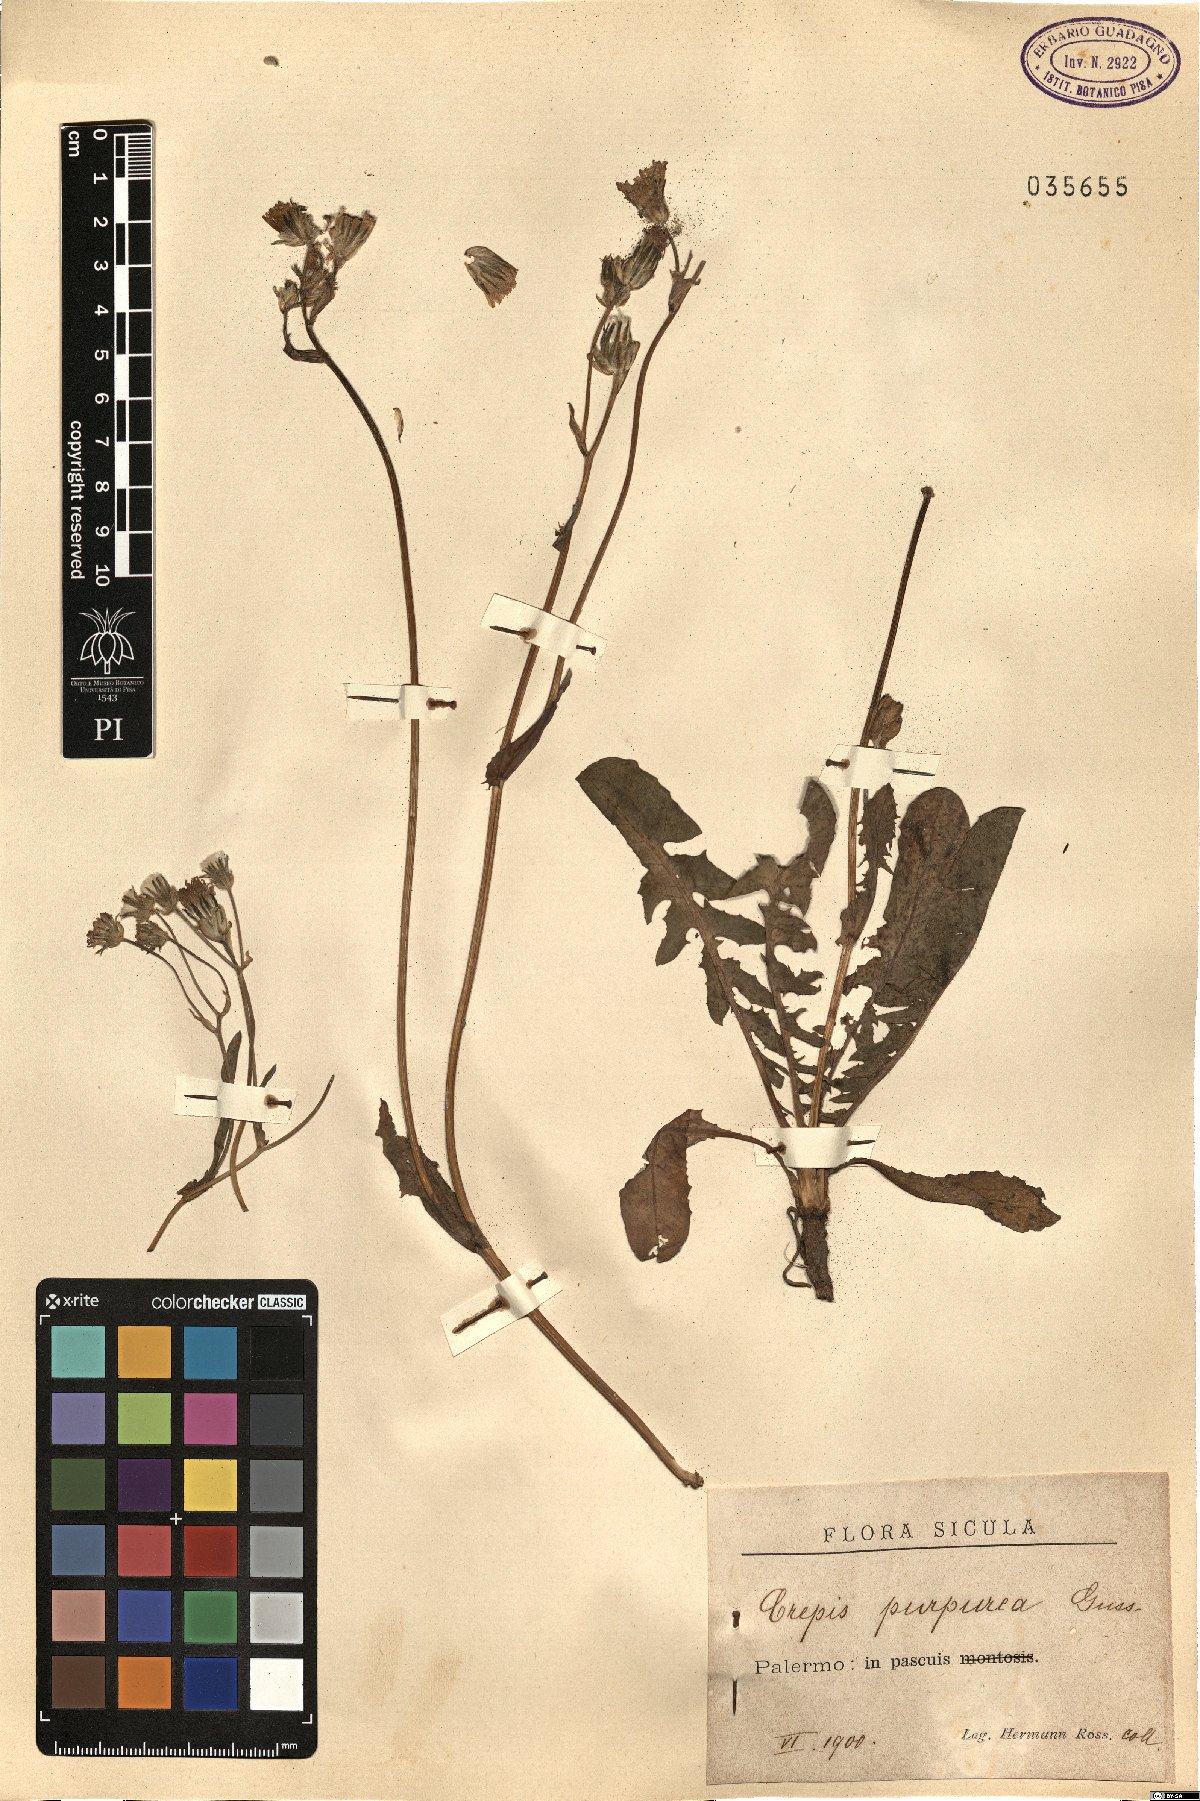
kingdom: Plantae
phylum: Tracheophyta
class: Magnoliopsida
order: Asterales
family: Asteraceae
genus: Crepis
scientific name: Crepis vesicaria
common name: Beaked hawksbeard
